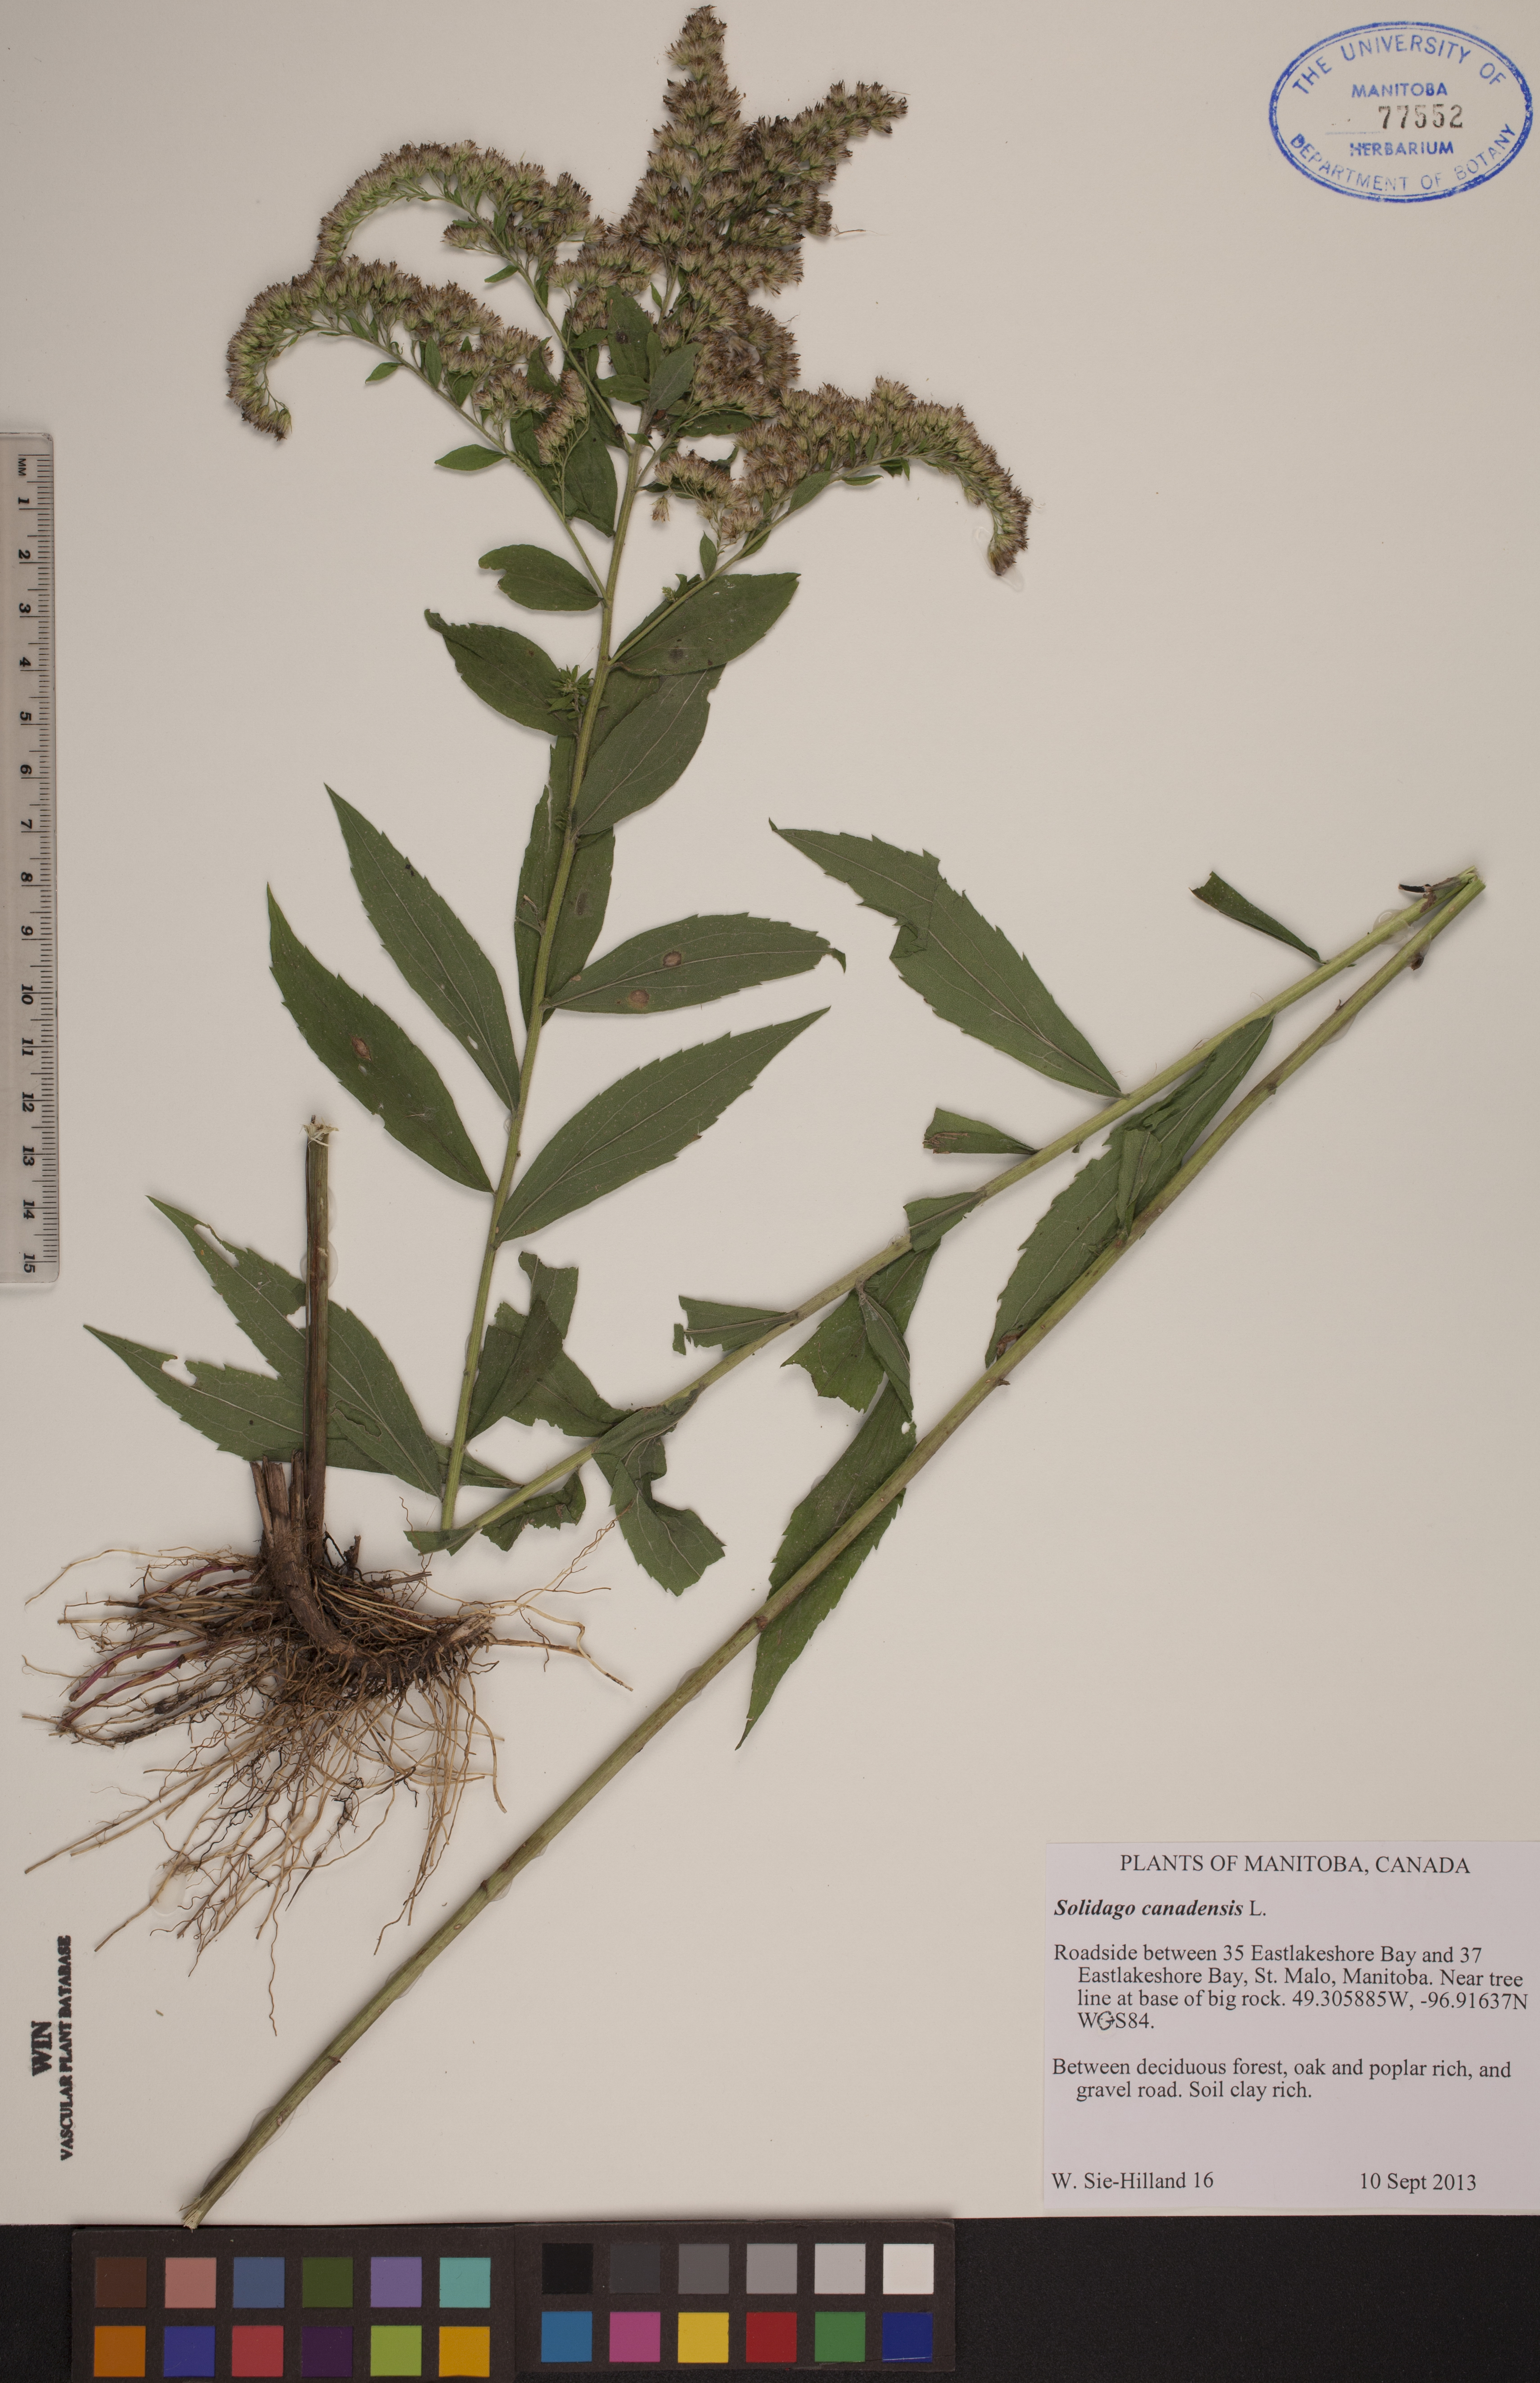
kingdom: Plantae
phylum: Tracheophyta
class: Magnoliopsida
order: Asterales
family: Asteraceae
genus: Solidago
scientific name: Solidago canadensis
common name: Canada goldenrod
